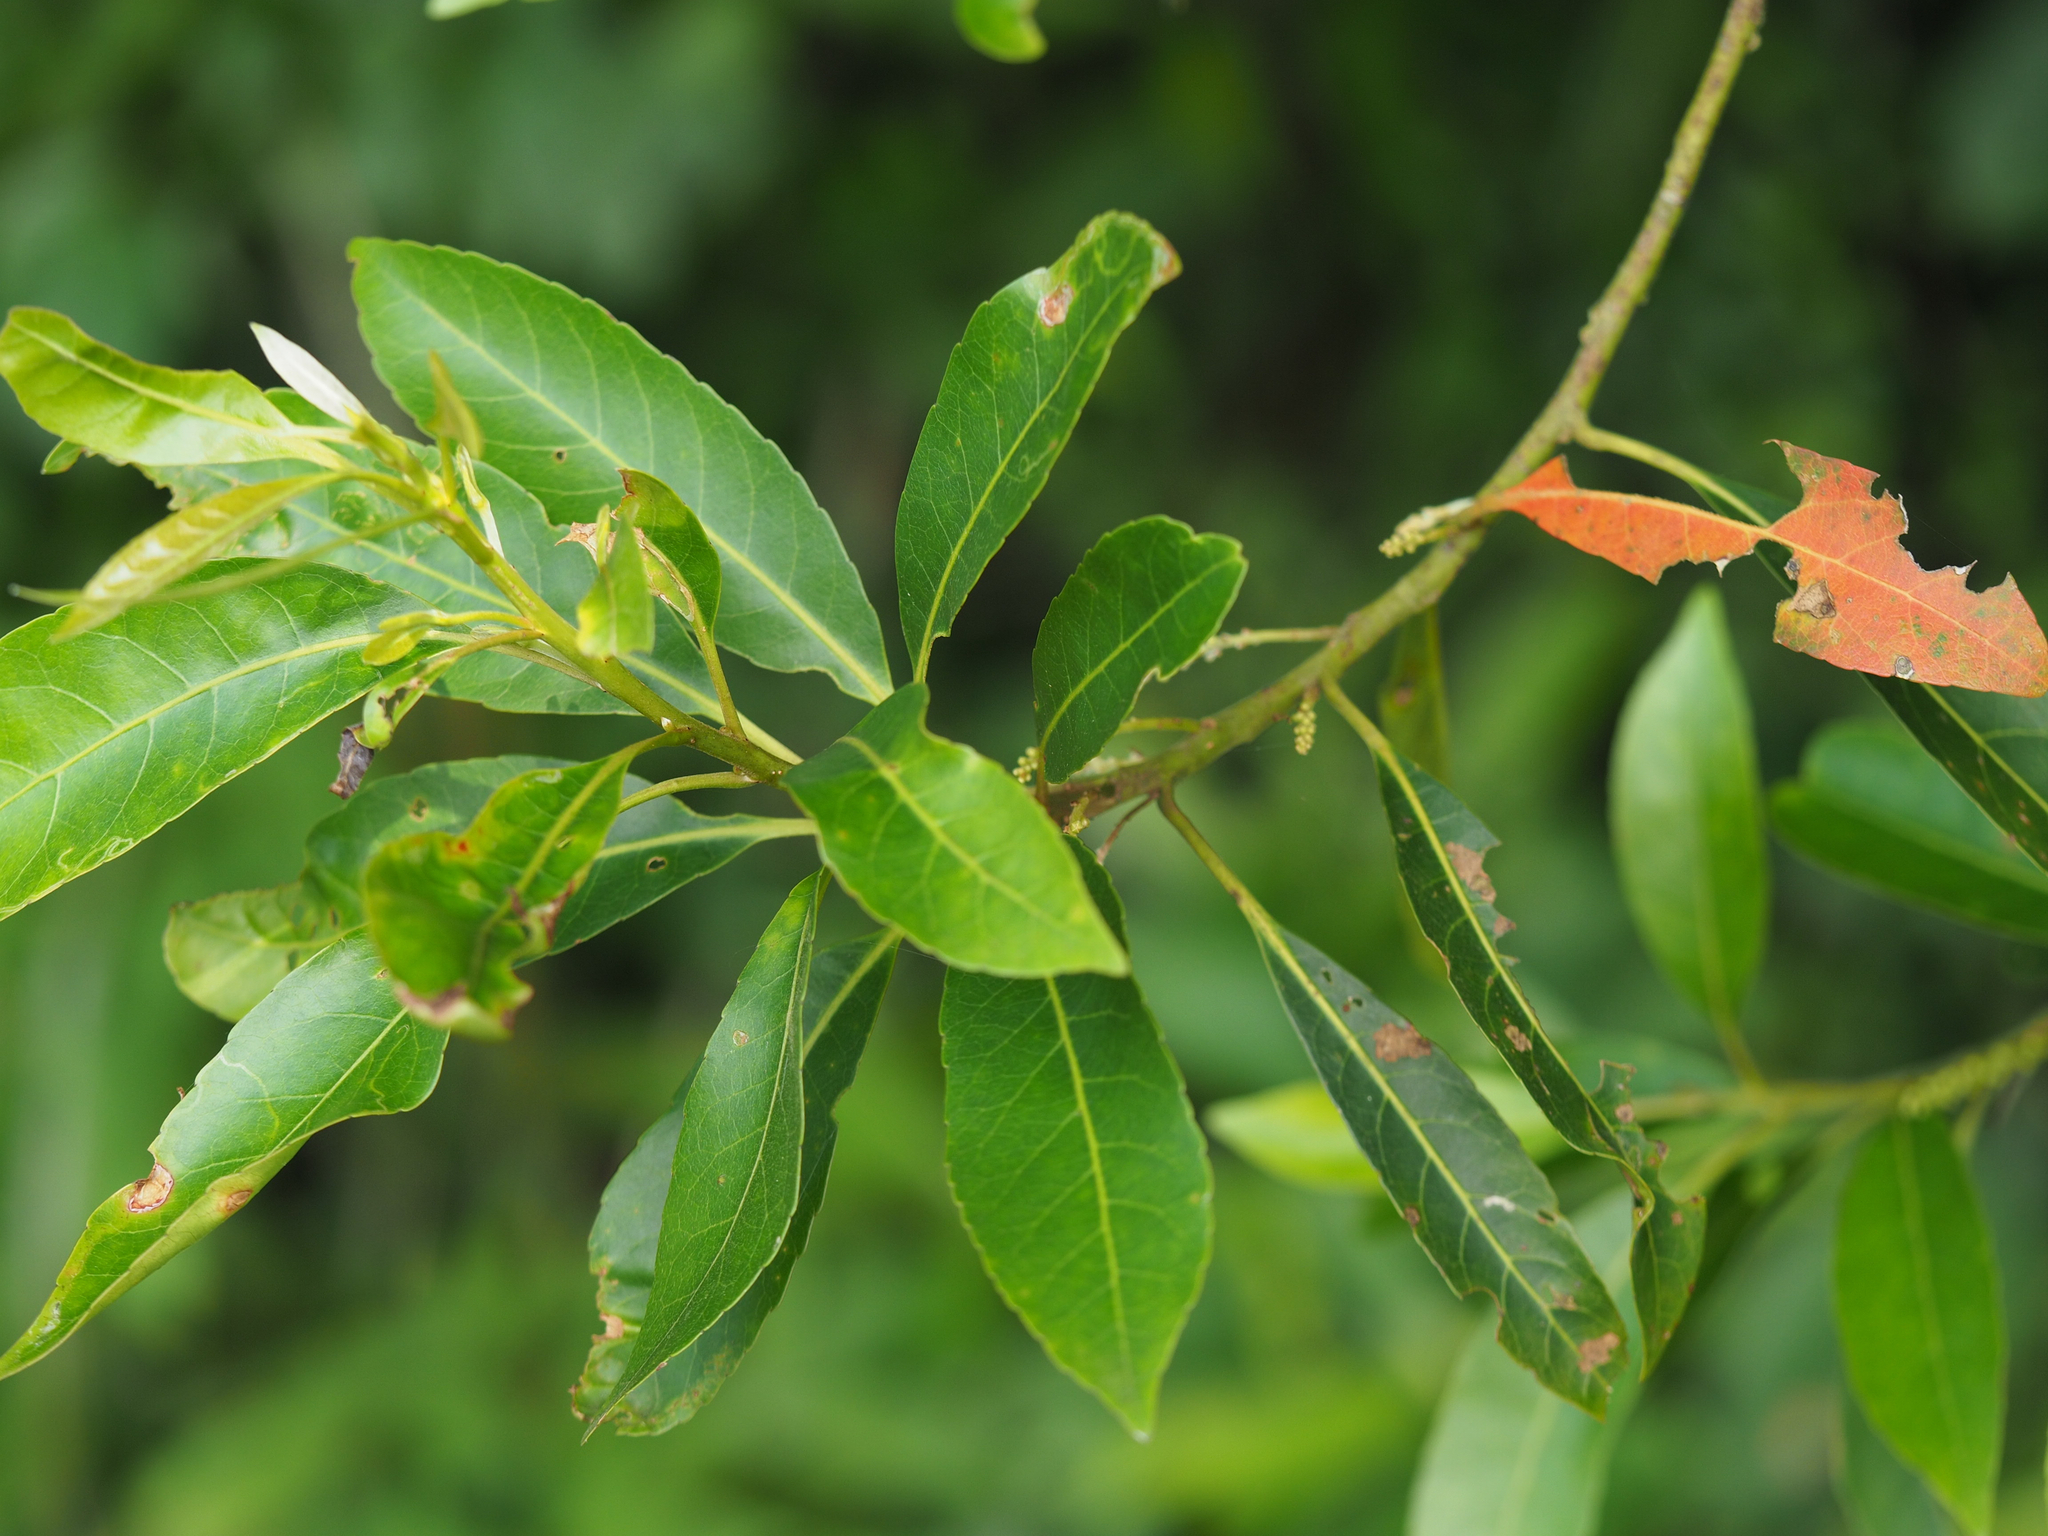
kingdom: Plantae
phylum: Tracheophyta
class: Magnoliopsida
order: Oxalidales
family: Elaeocarpaceae
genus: Elaeocarpus
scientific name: Elaeocarpus decipiens
